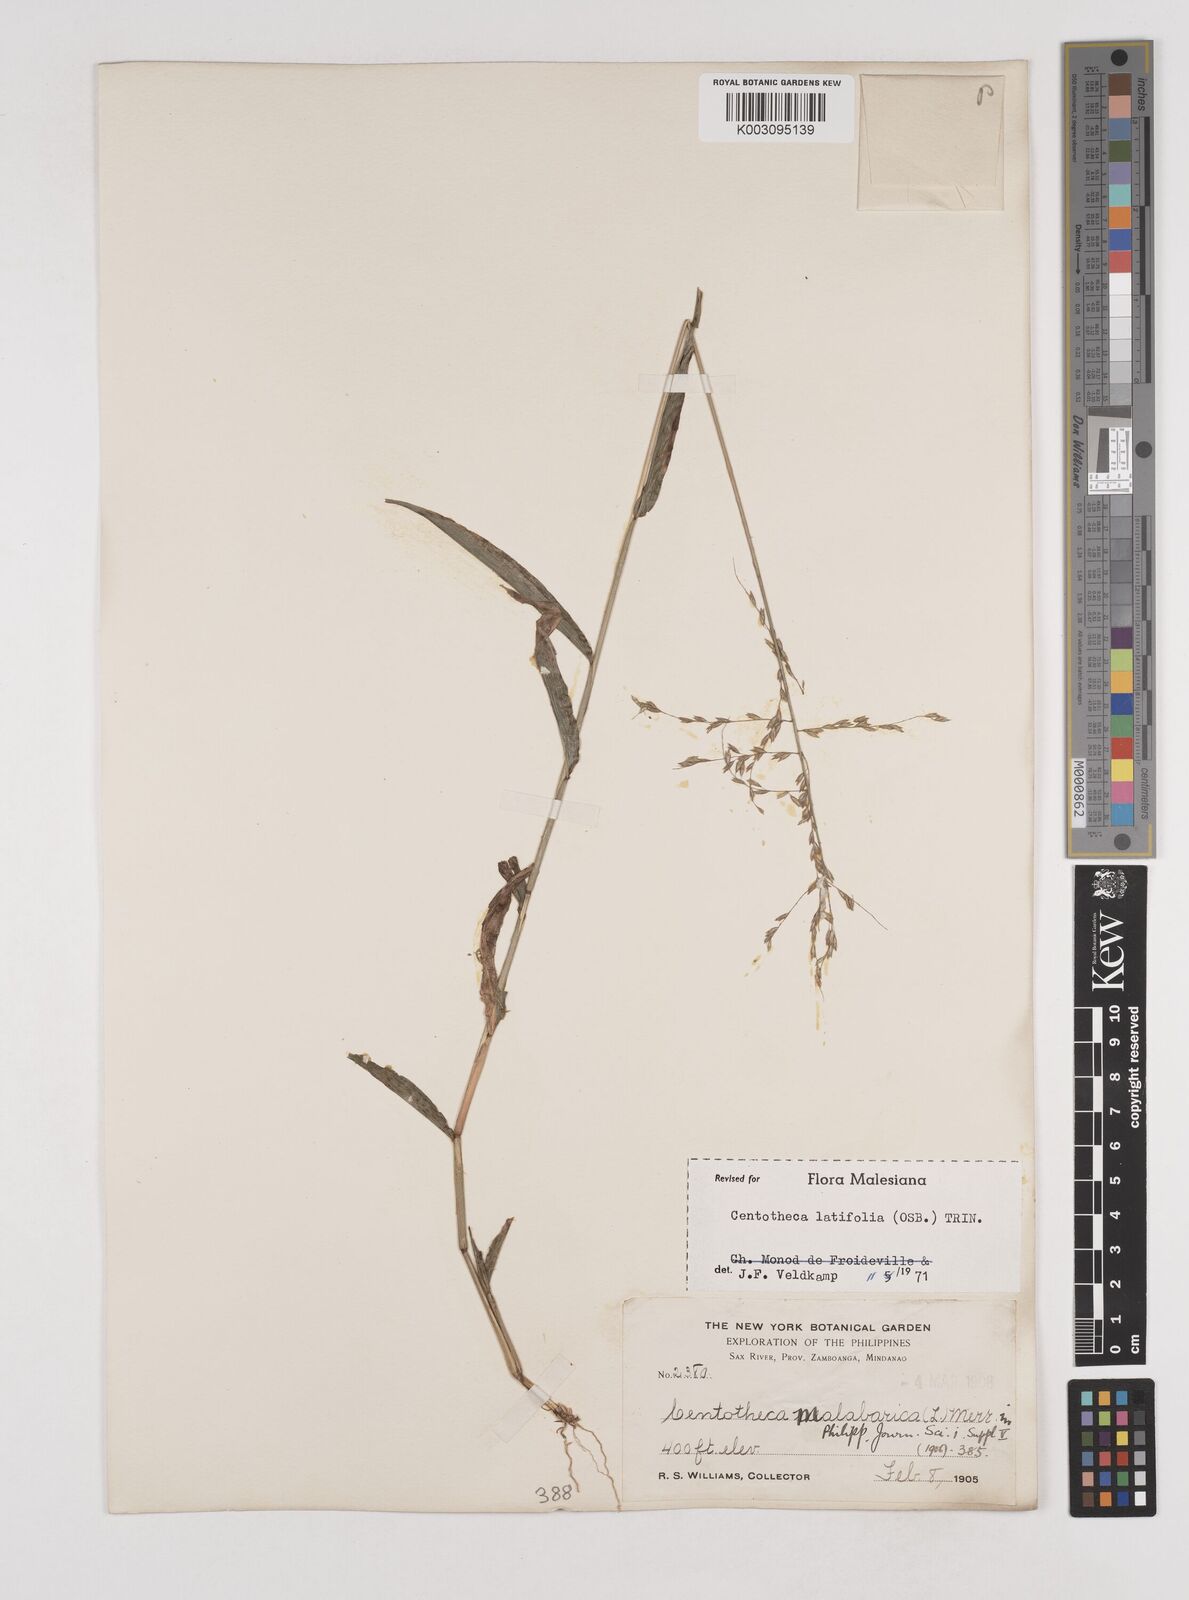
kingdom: Plantae
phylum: Tracheophyta
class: Liliopsida
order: Poales
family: Poaceae
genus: Centotheca
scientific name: Centotheca lappacea
